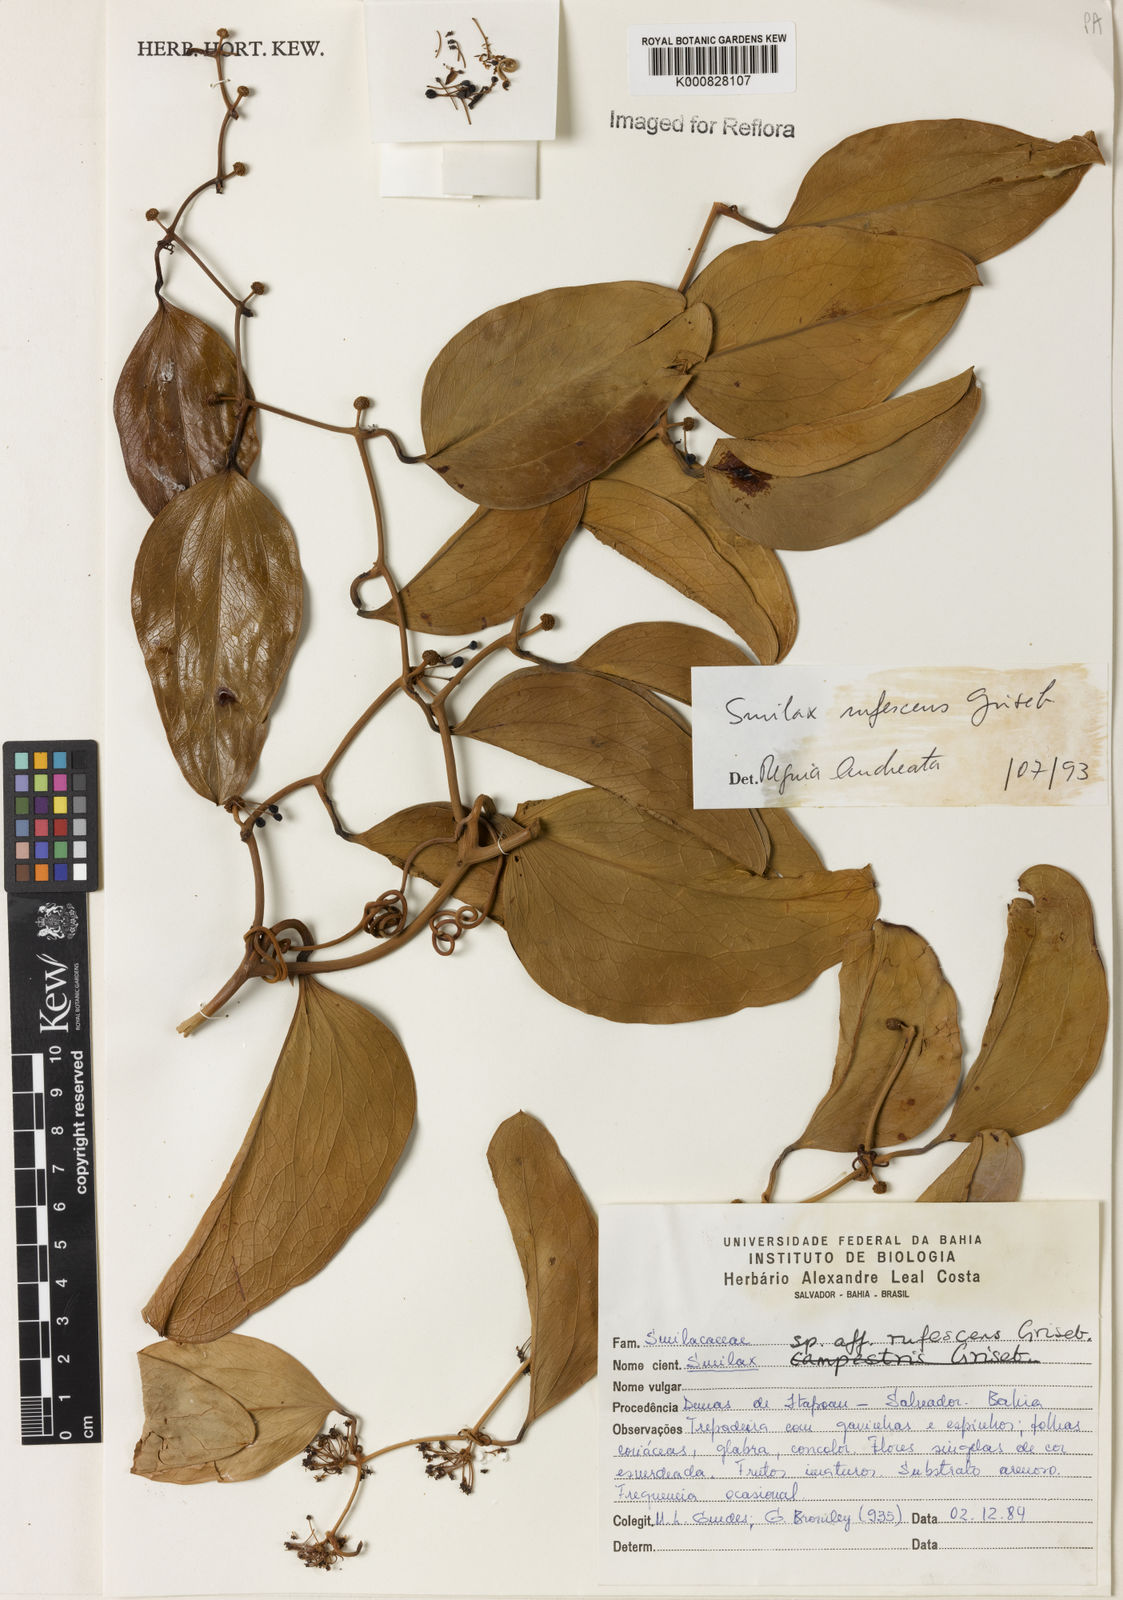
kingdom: Plantae
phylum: Tracheophyta
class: Liliopsida
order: Liliales
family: Smilacaceae
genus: Smilax
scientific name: Smilax rufescens
